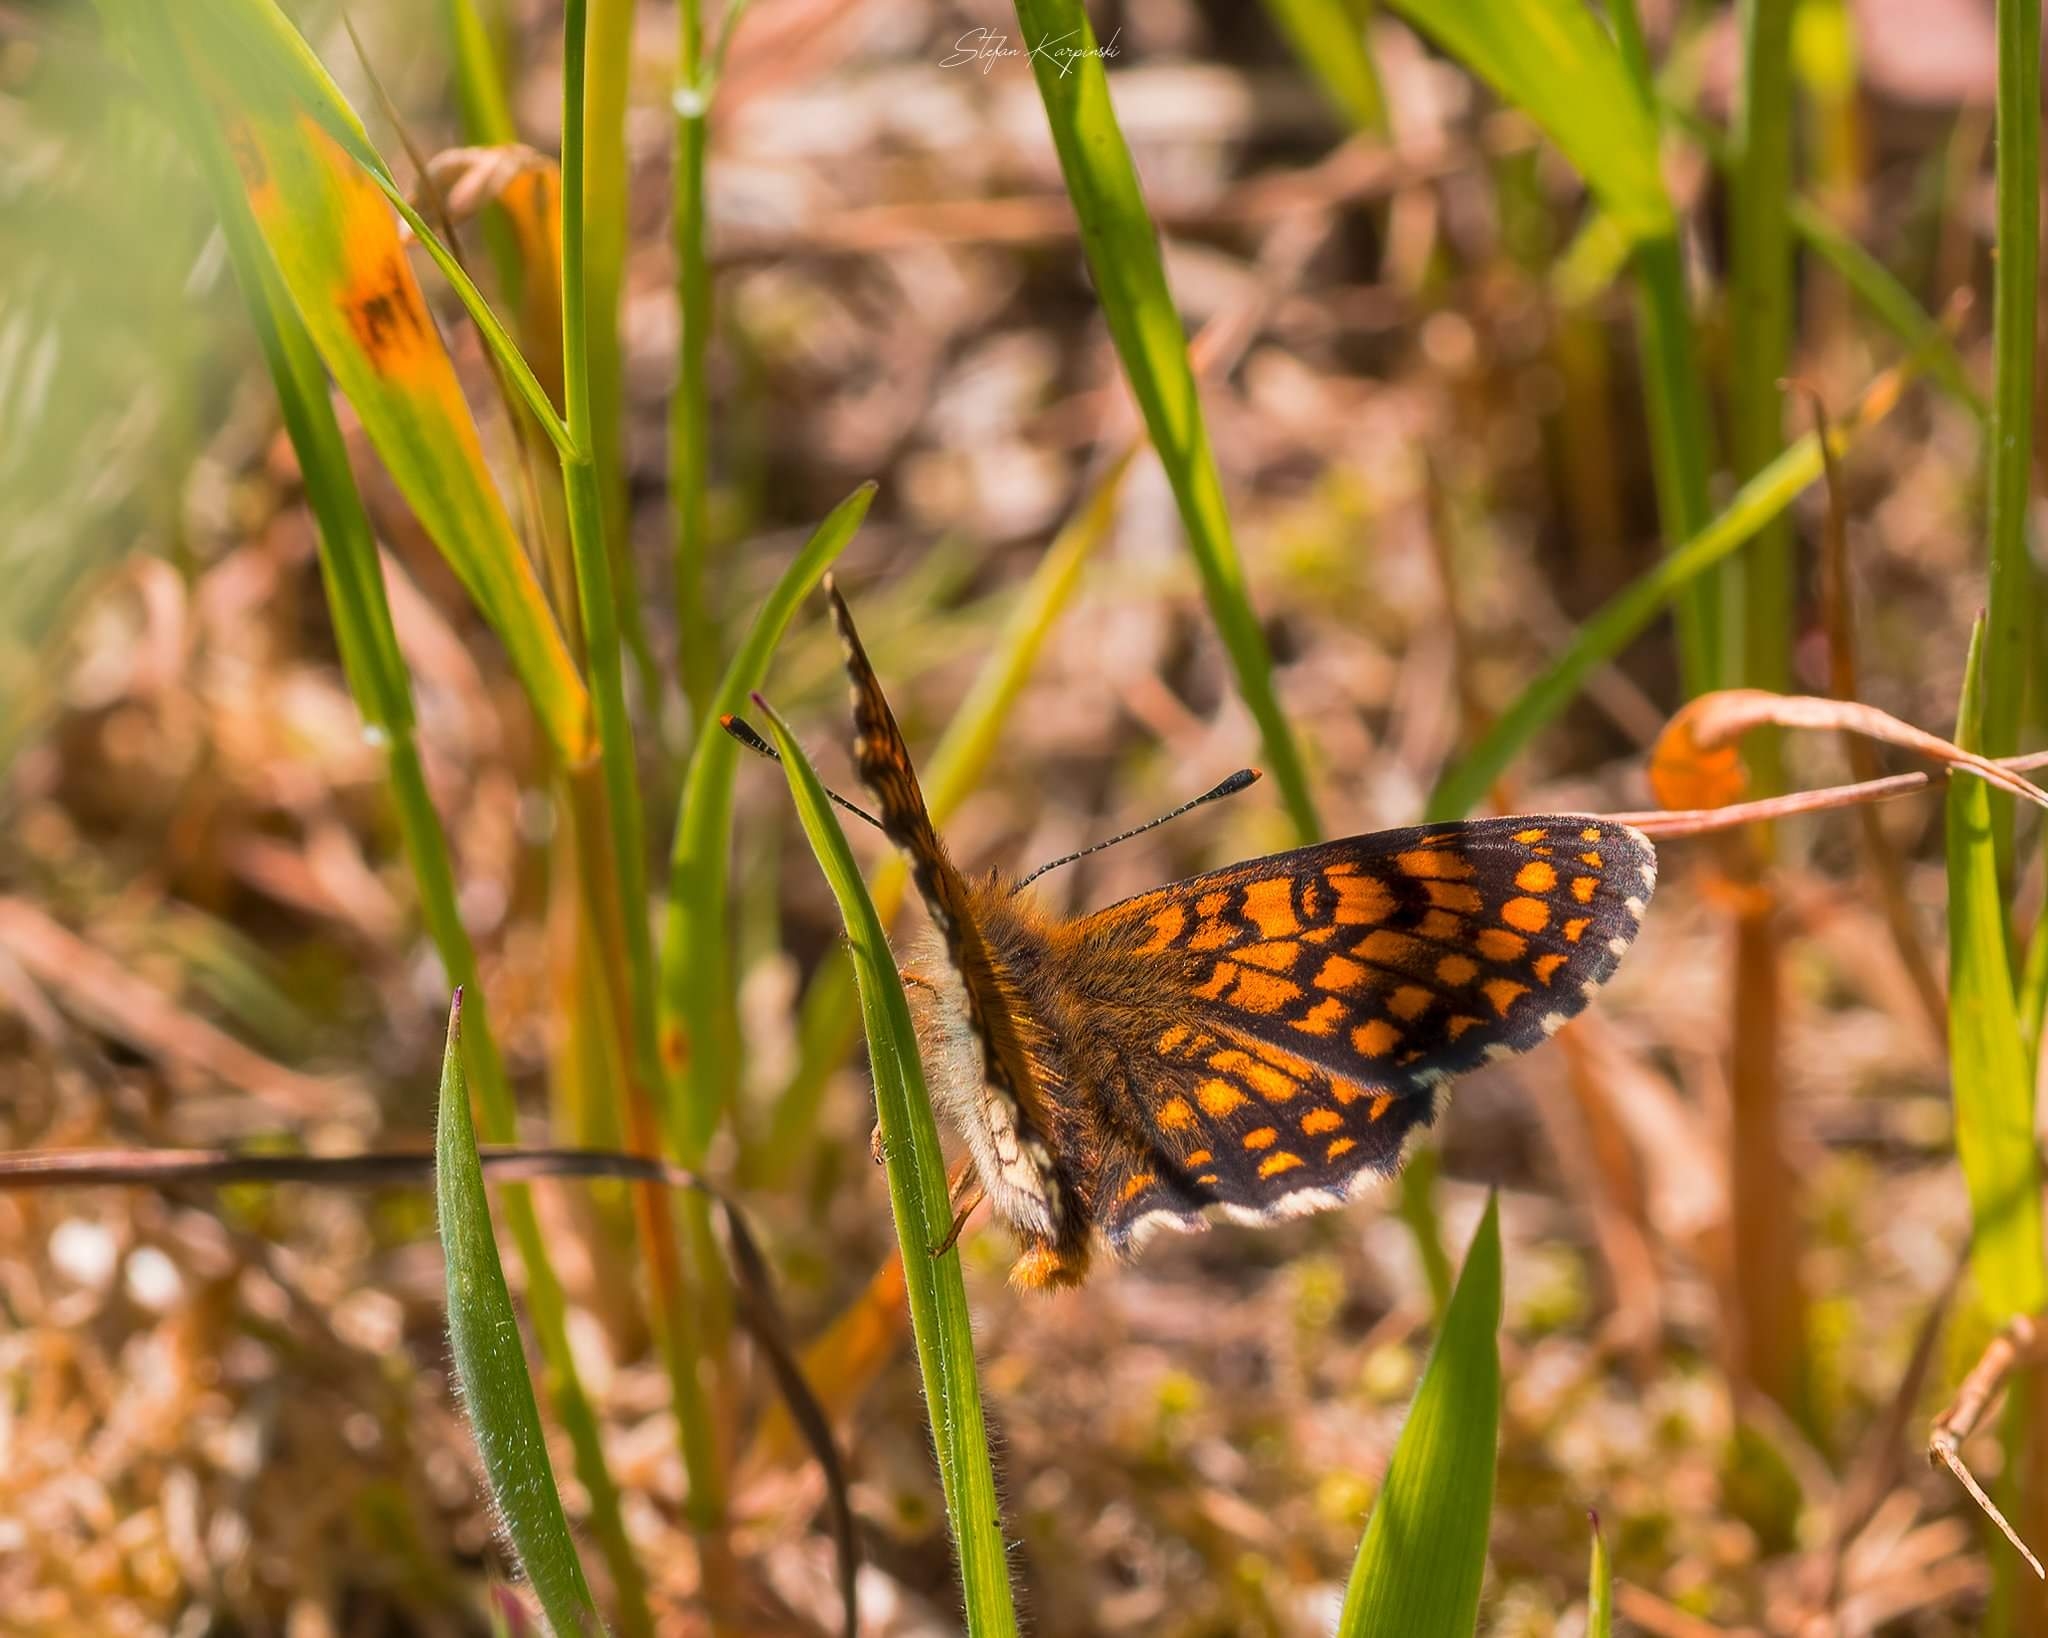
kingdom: Animalia
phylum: Arthropoda
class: Insecta
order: Lepidoptera
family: Nymphalidae
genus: Mellicta
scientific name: Mellicta athalia
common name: Brun pletvinge
